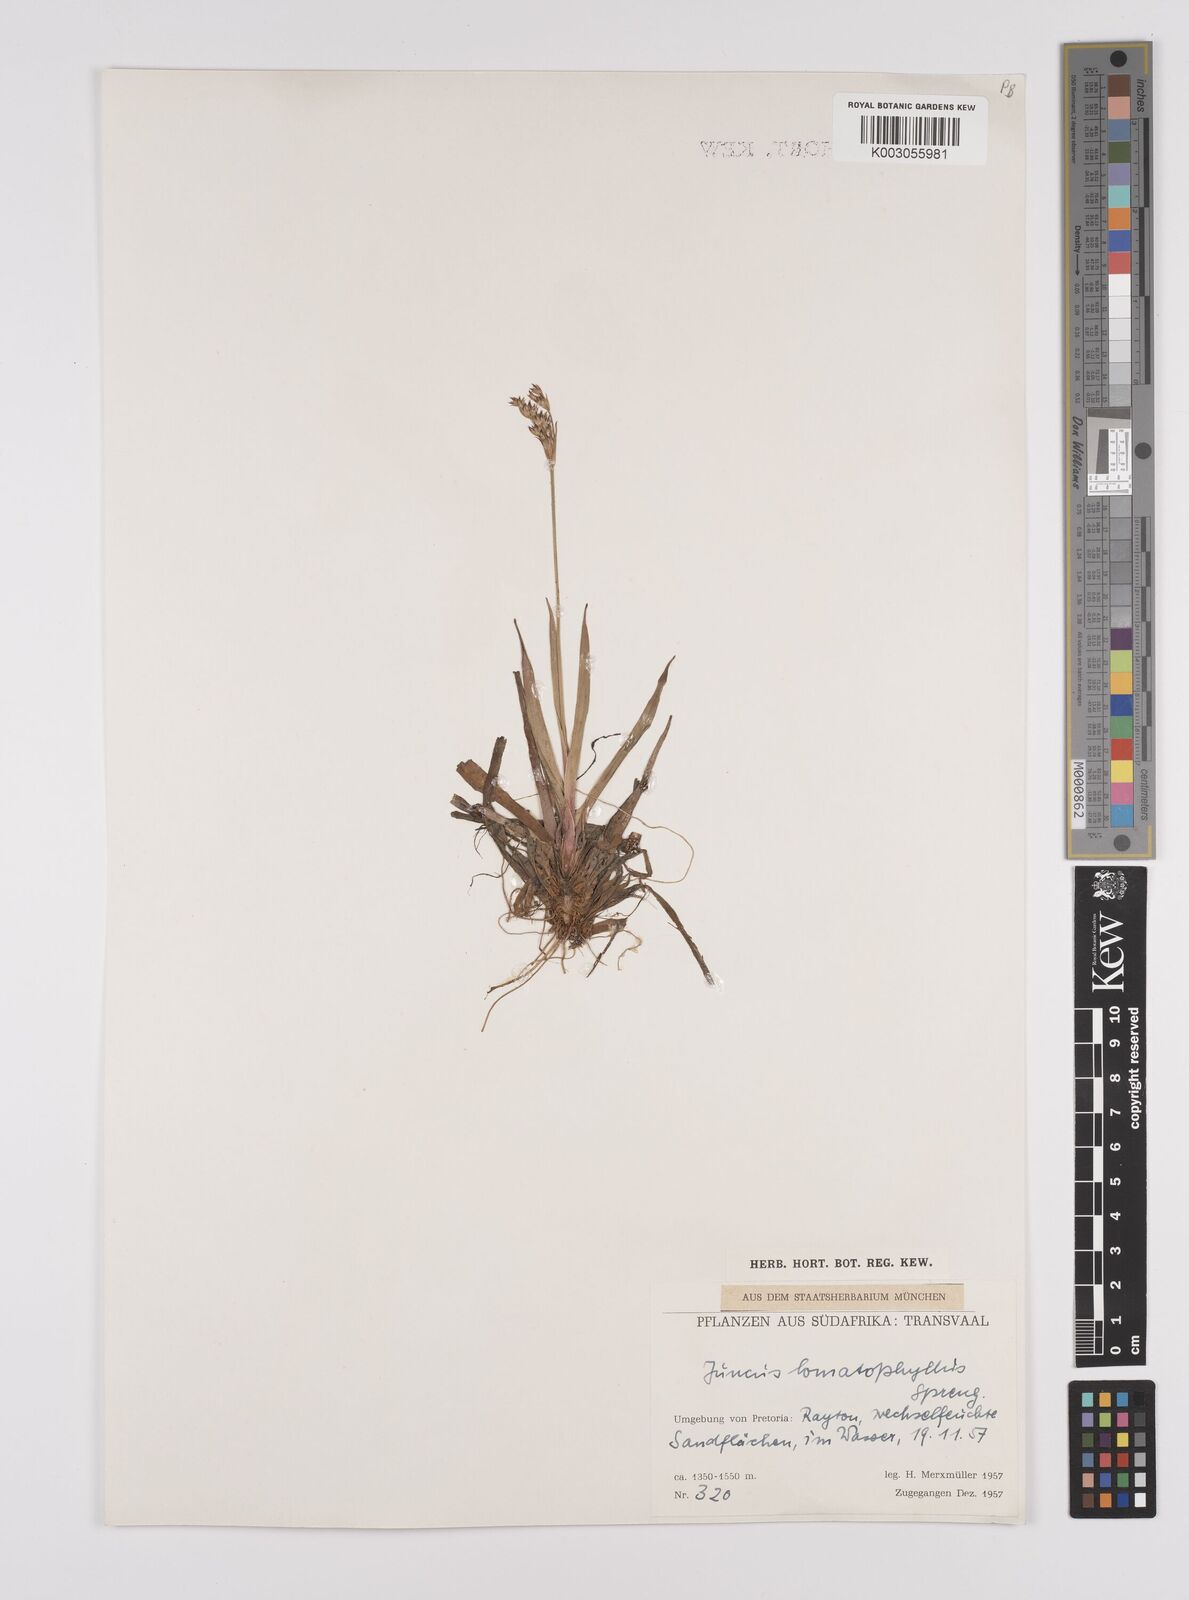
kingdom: Plantae
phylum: Tracheophyta
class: Liliopsida
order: Poales
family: Juncaceae
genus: Juncus
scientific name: Juncus lomatophyllus
